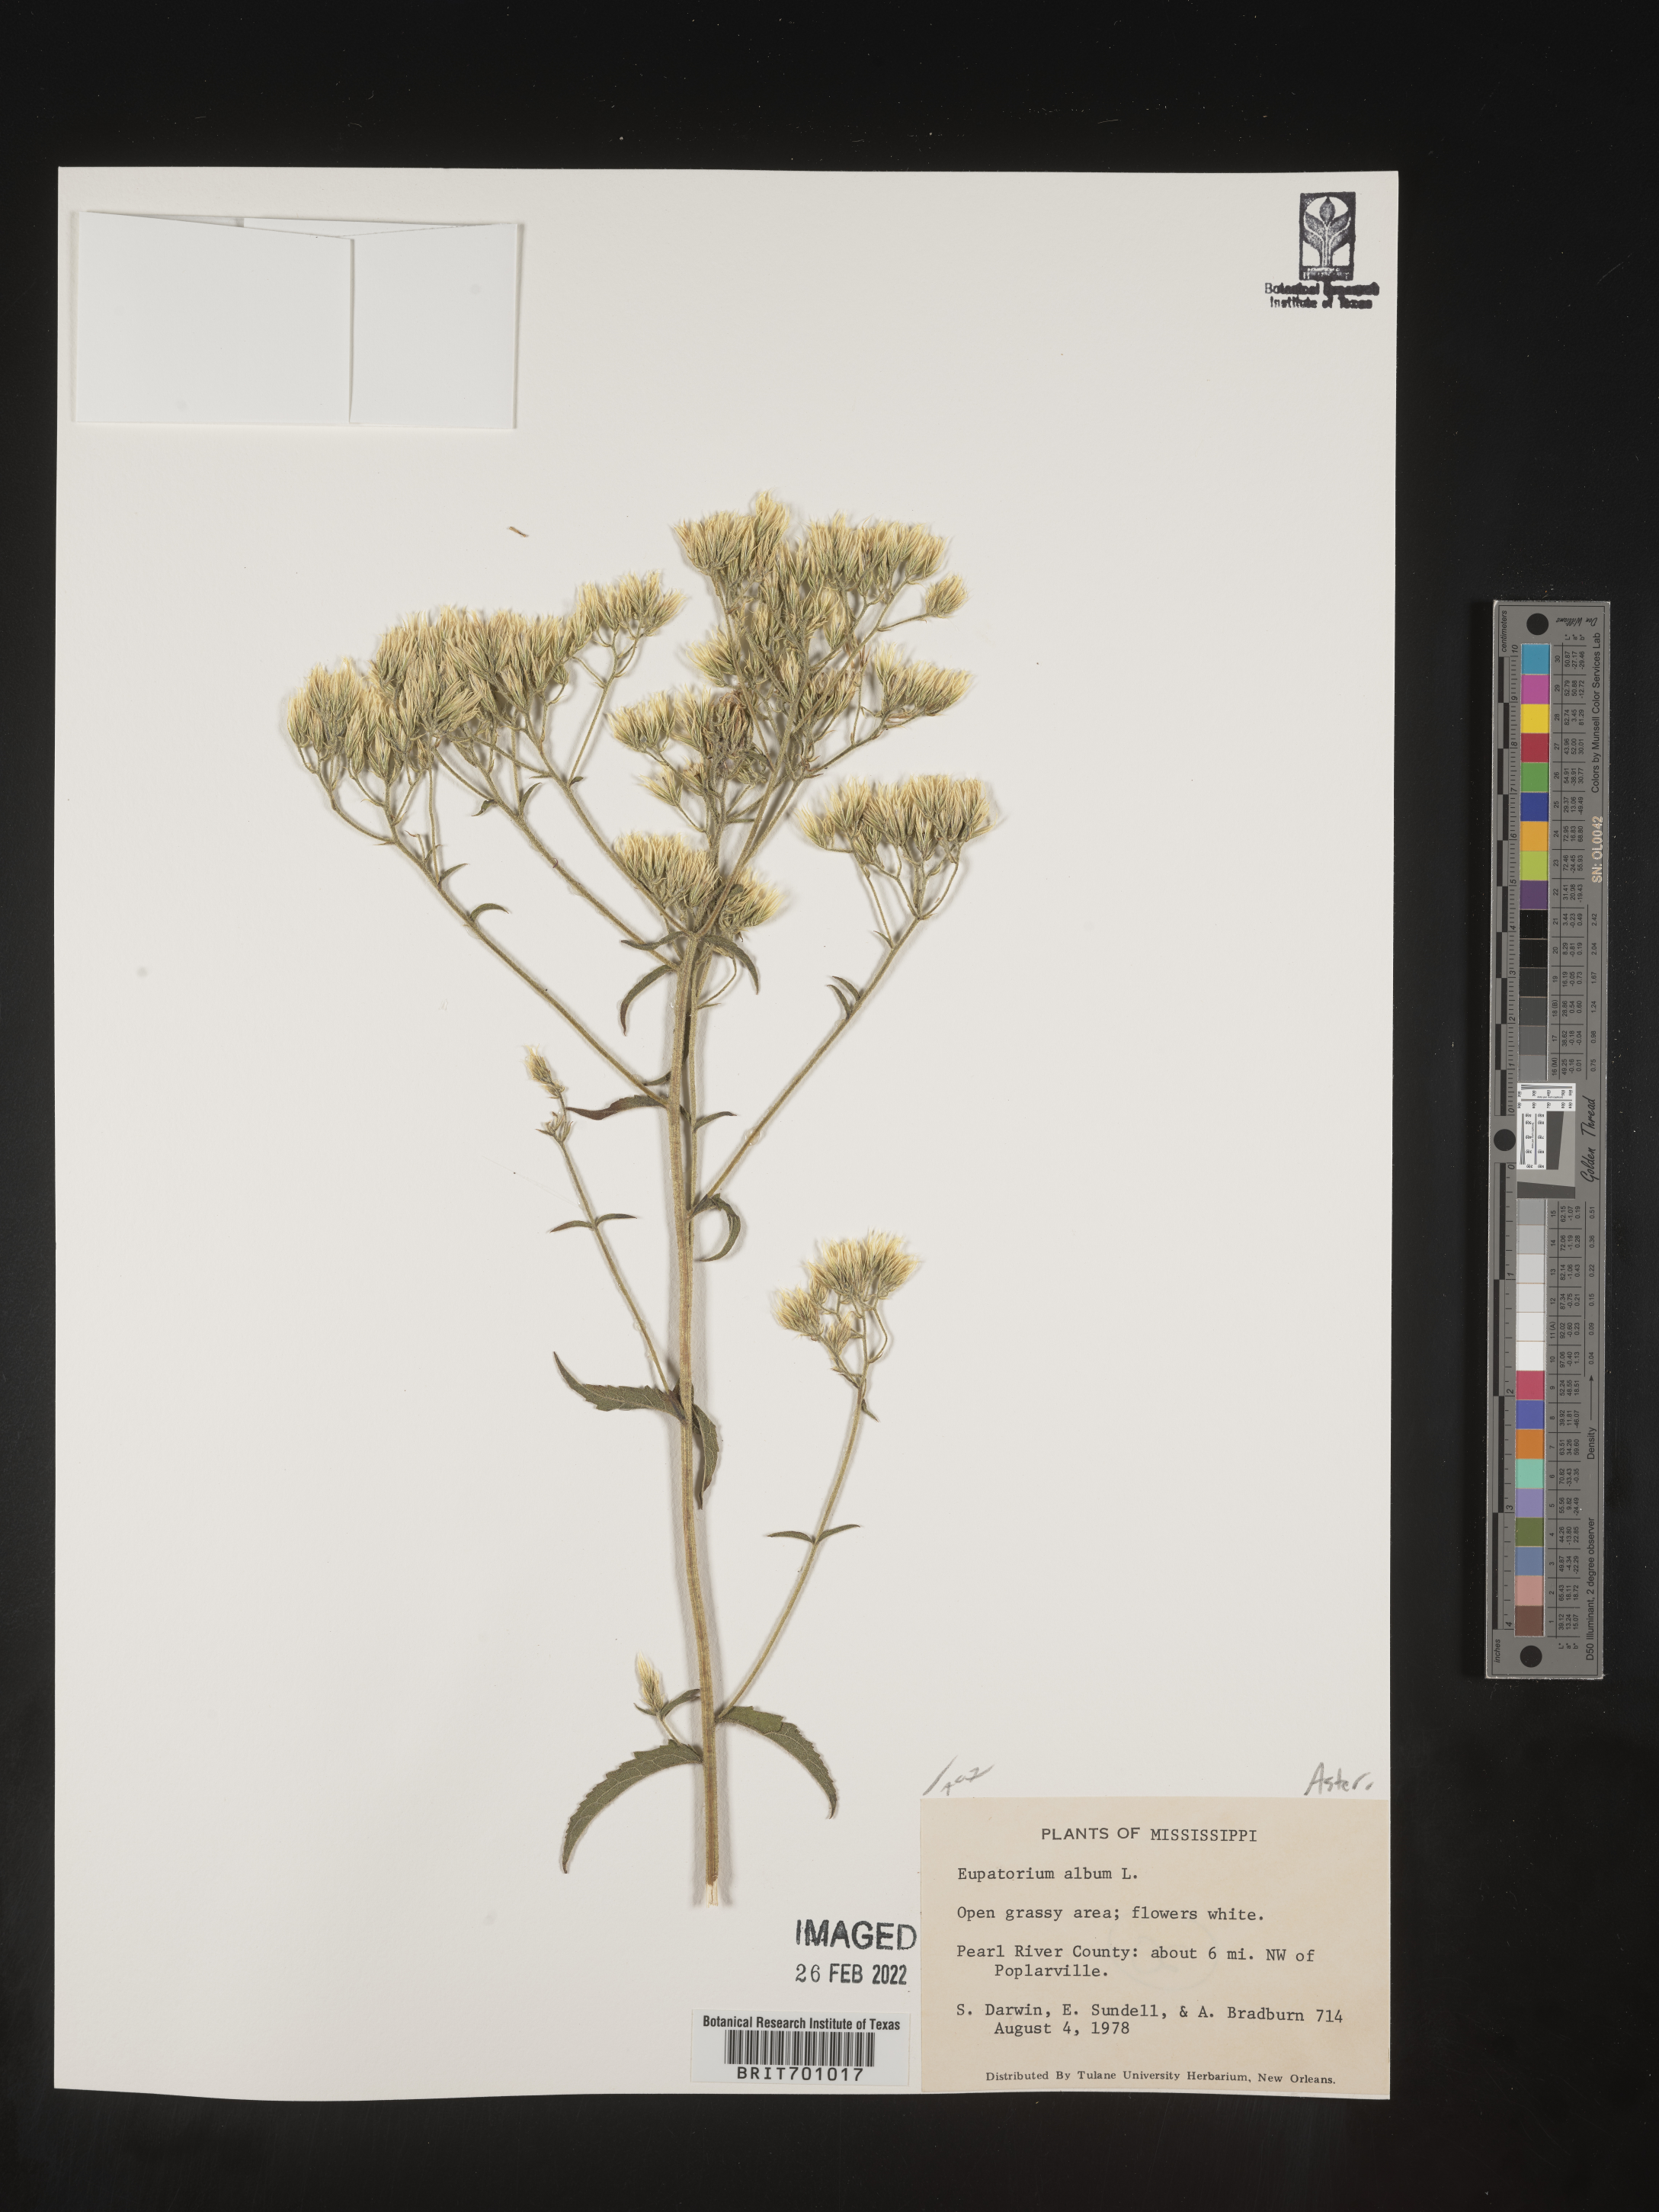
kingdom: Plantae
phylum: Tracheophyta
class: Magnoliopsida
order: Asterales
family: Asteraceae
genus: Eupatorium
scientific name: Eupatorium album
